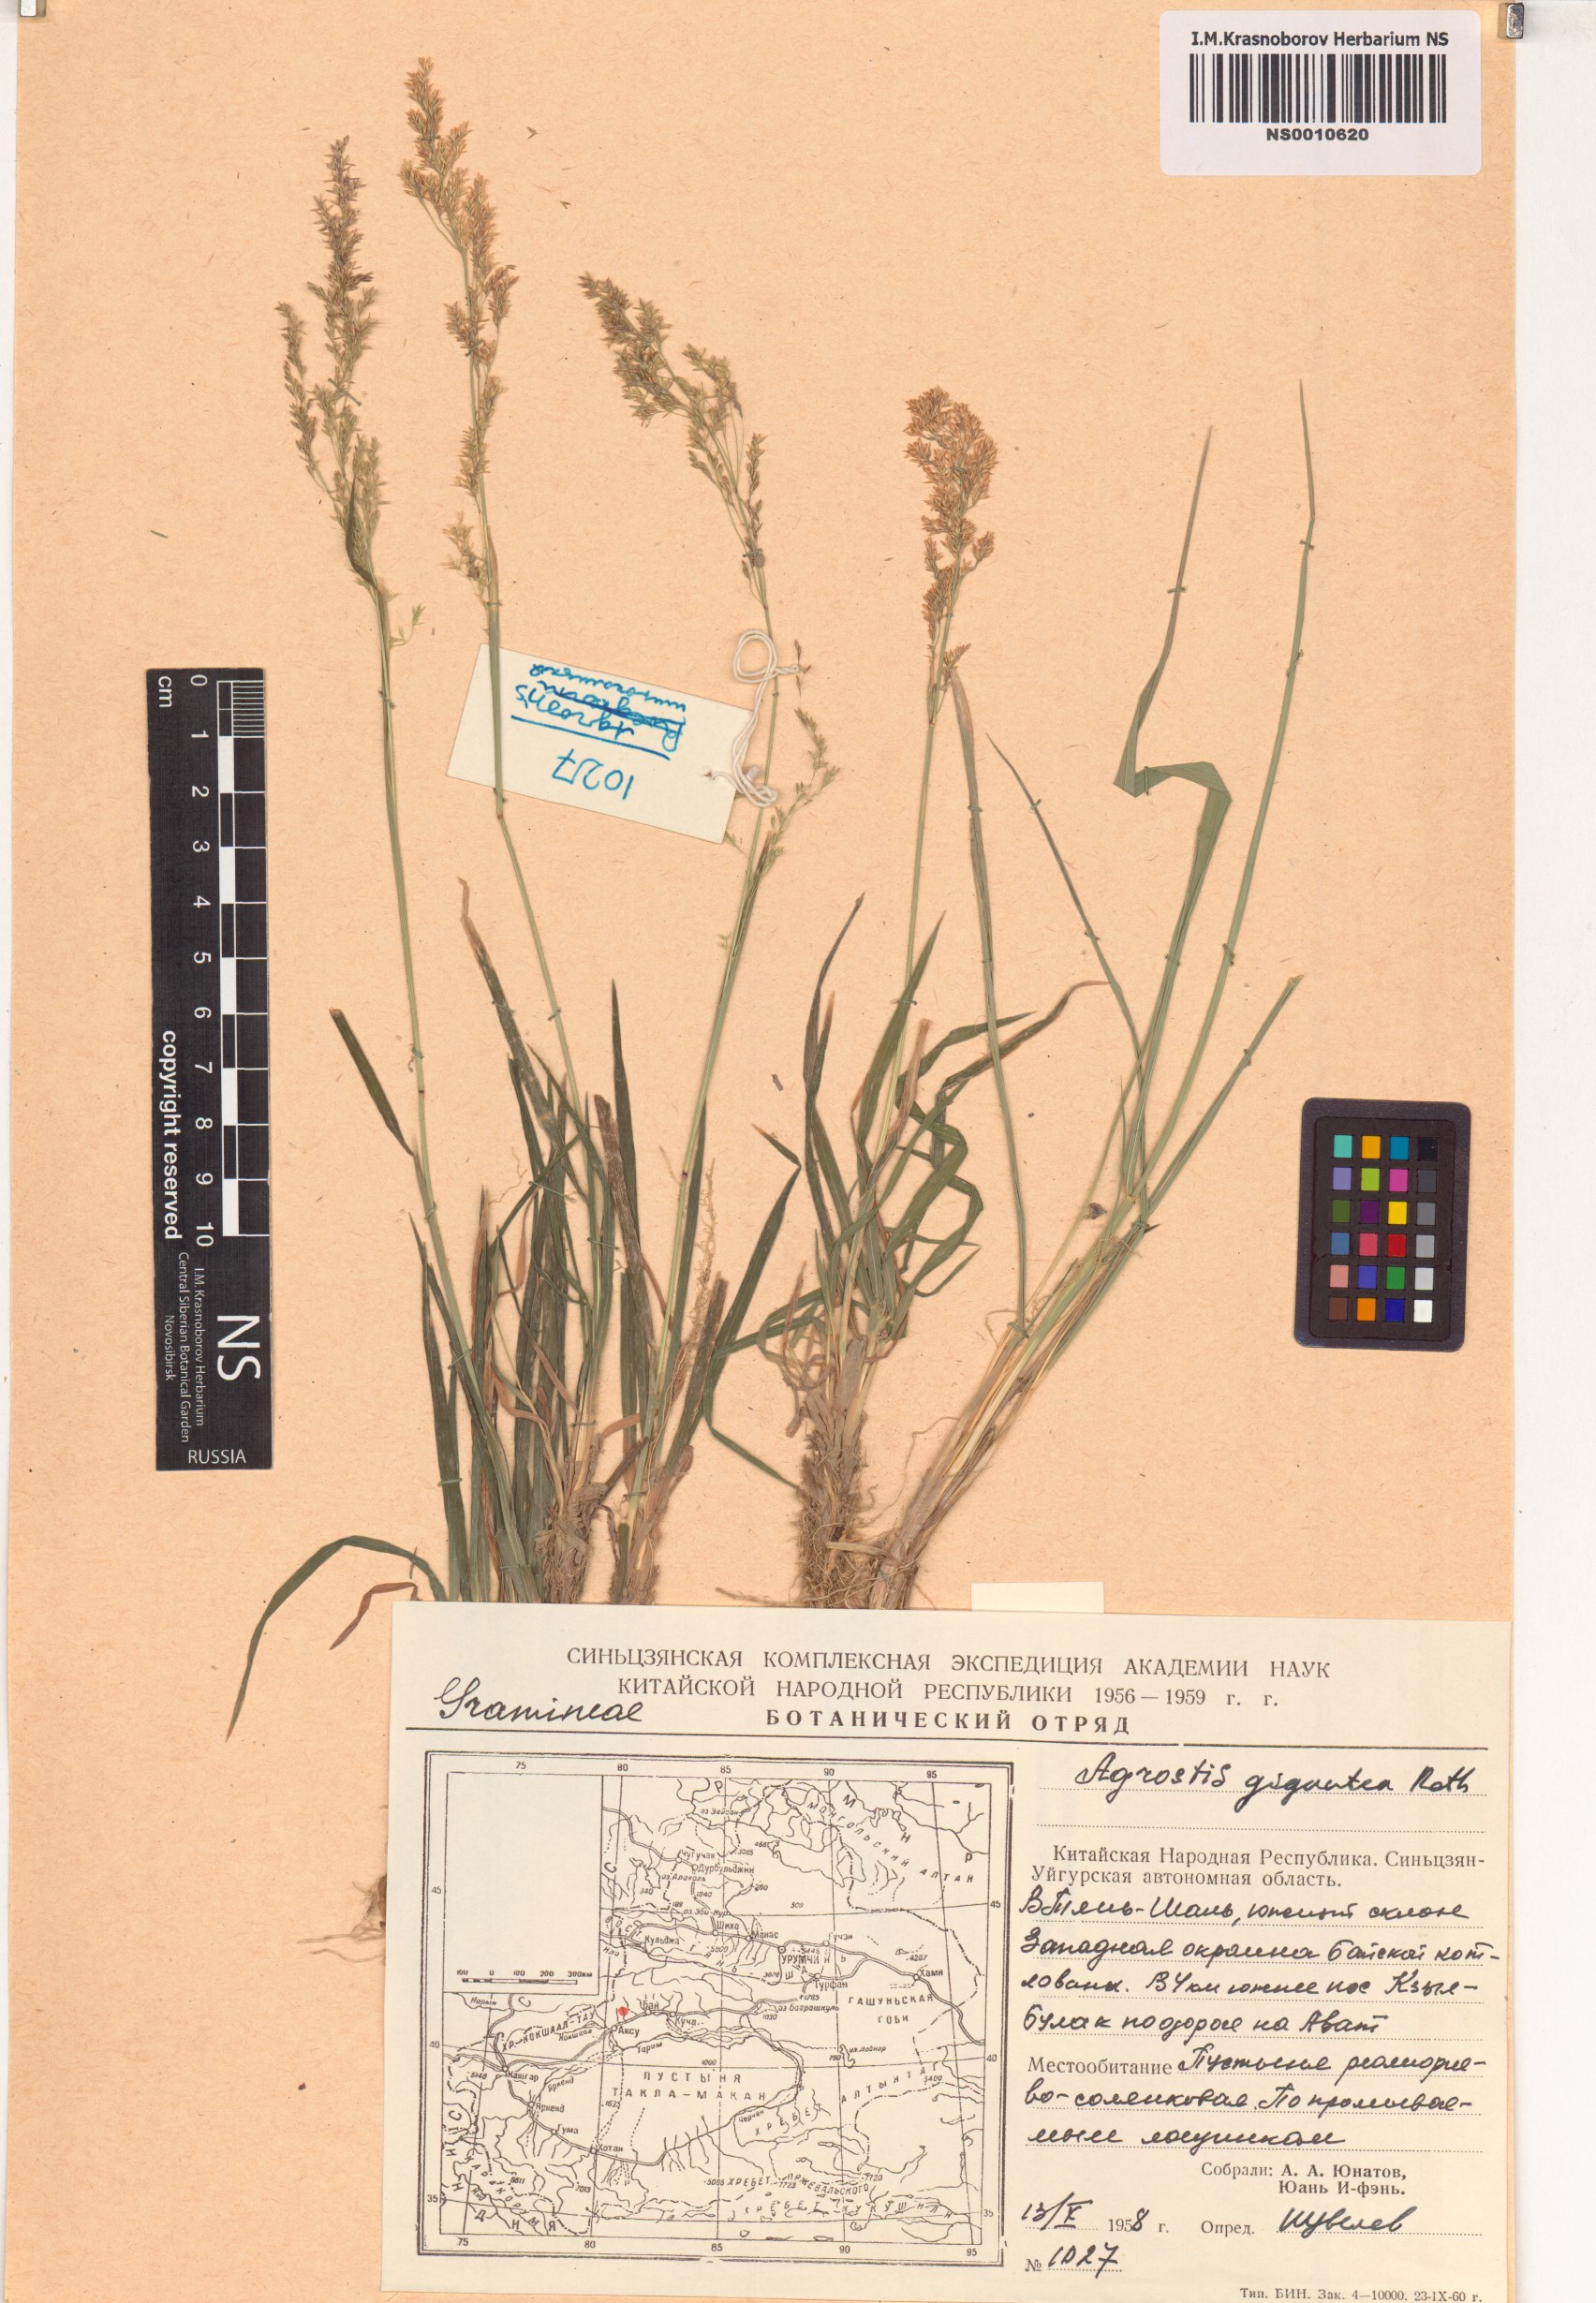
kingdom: Plantae
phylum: Tracheophyta
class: Liliopsida
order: Poales
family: Poaceae
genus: Agrostis
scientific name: Agrostis gigantea
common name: Black bent
